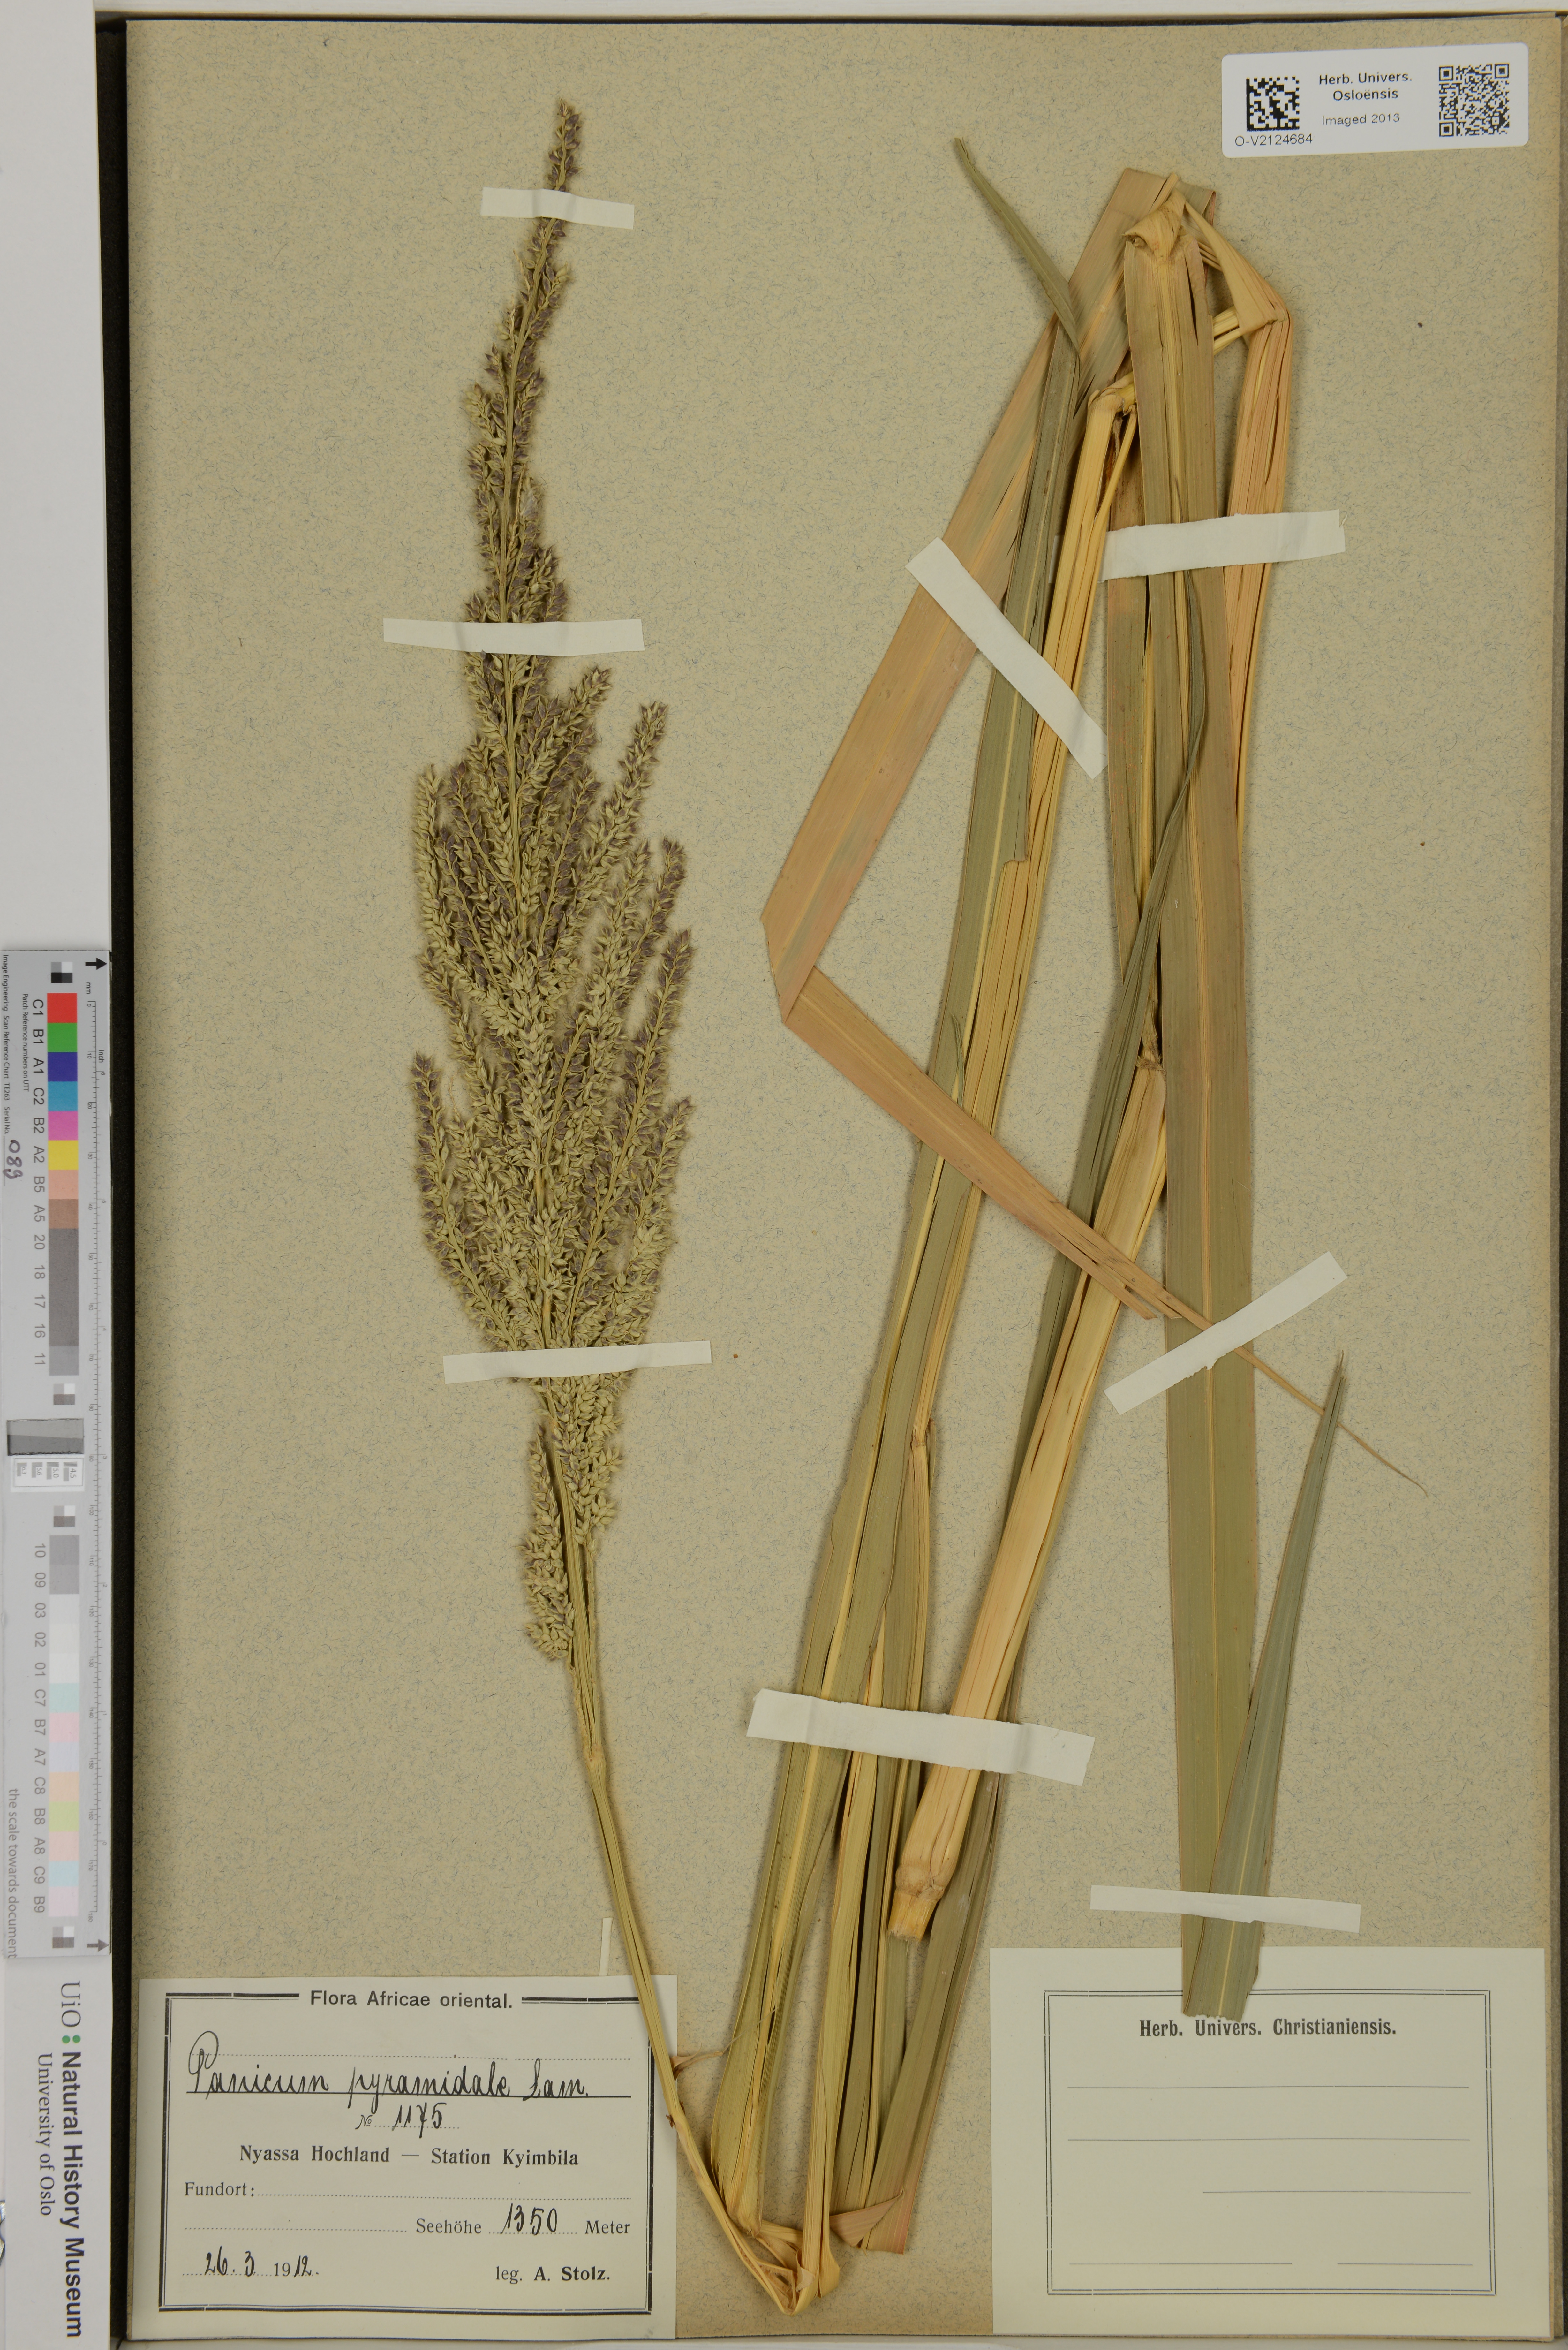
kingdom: Plantae
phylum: Tracheophyta
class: Liliopsida
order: Poales
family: Poaceae
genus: Echinochloa
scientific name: Echinochloa pyramidalis
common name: Antelope grass
